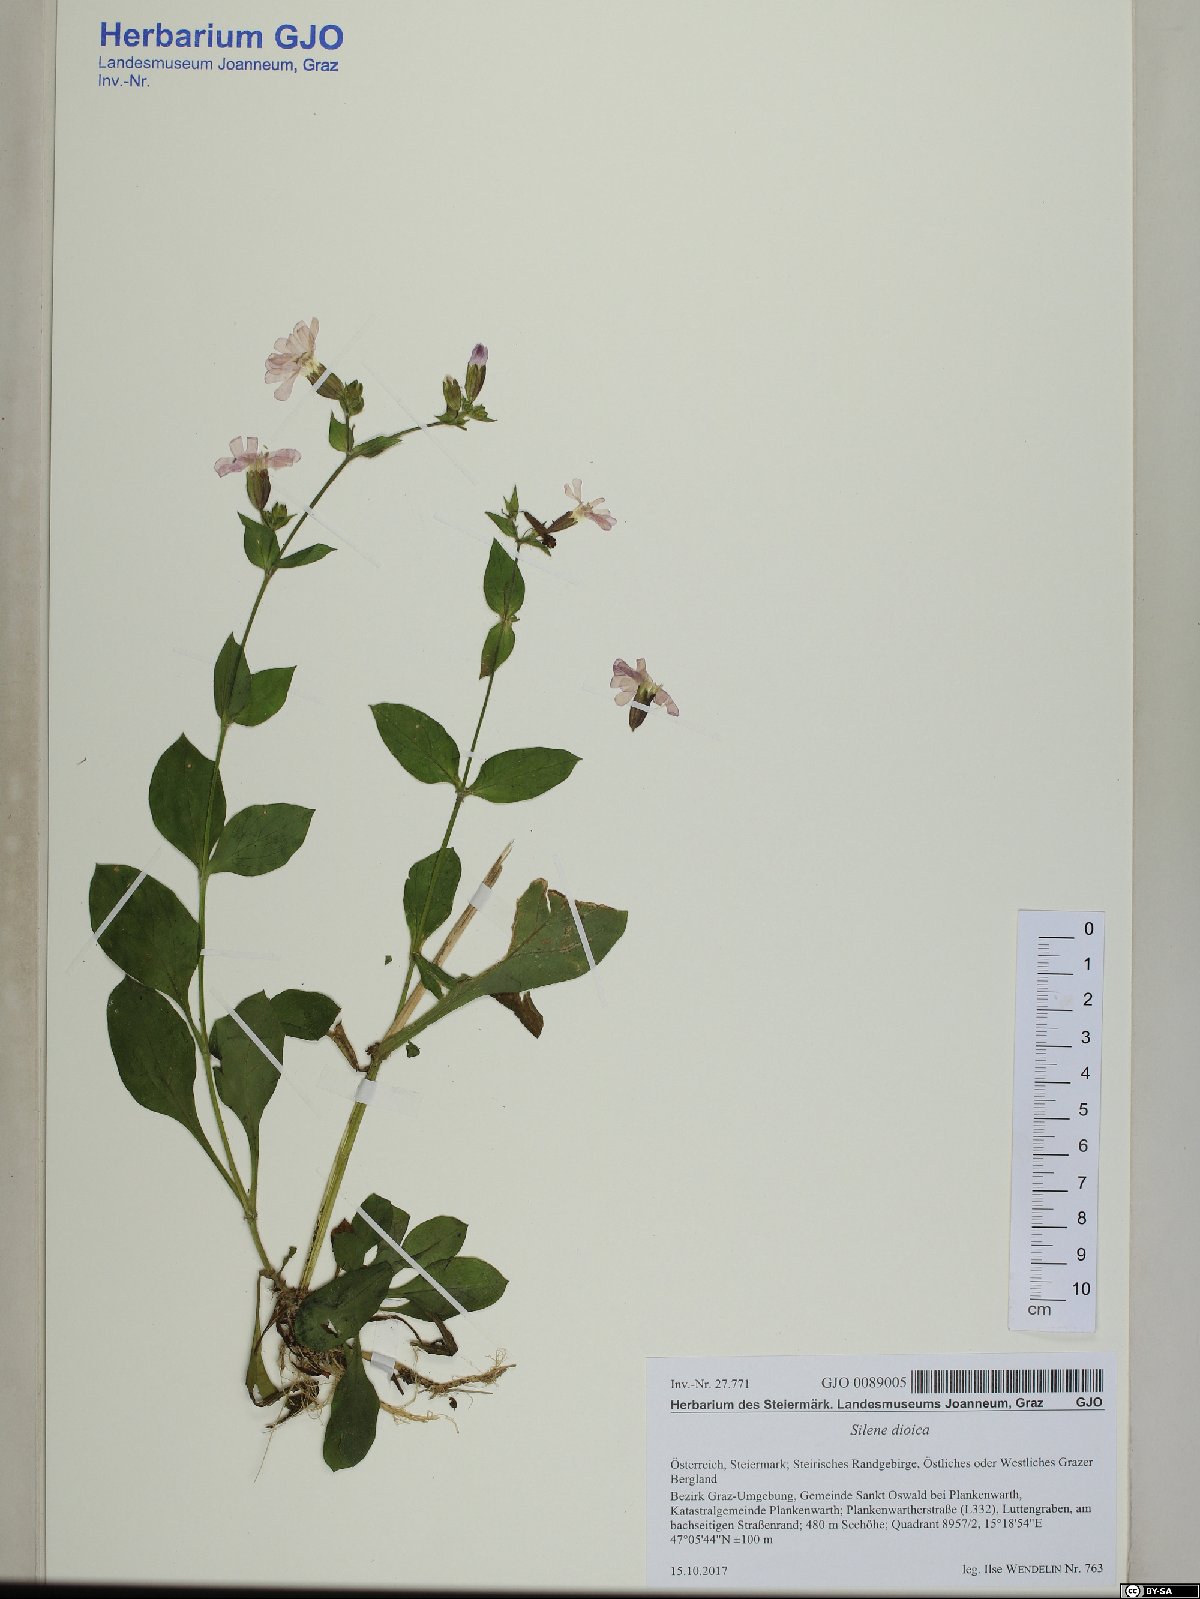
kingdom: Plantae
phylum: Tracheophyta
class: Magnoliopsida
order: Caryophyllales
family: Caryophyllaceae
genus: Silene
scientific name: Silene dioica
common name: Red campion
